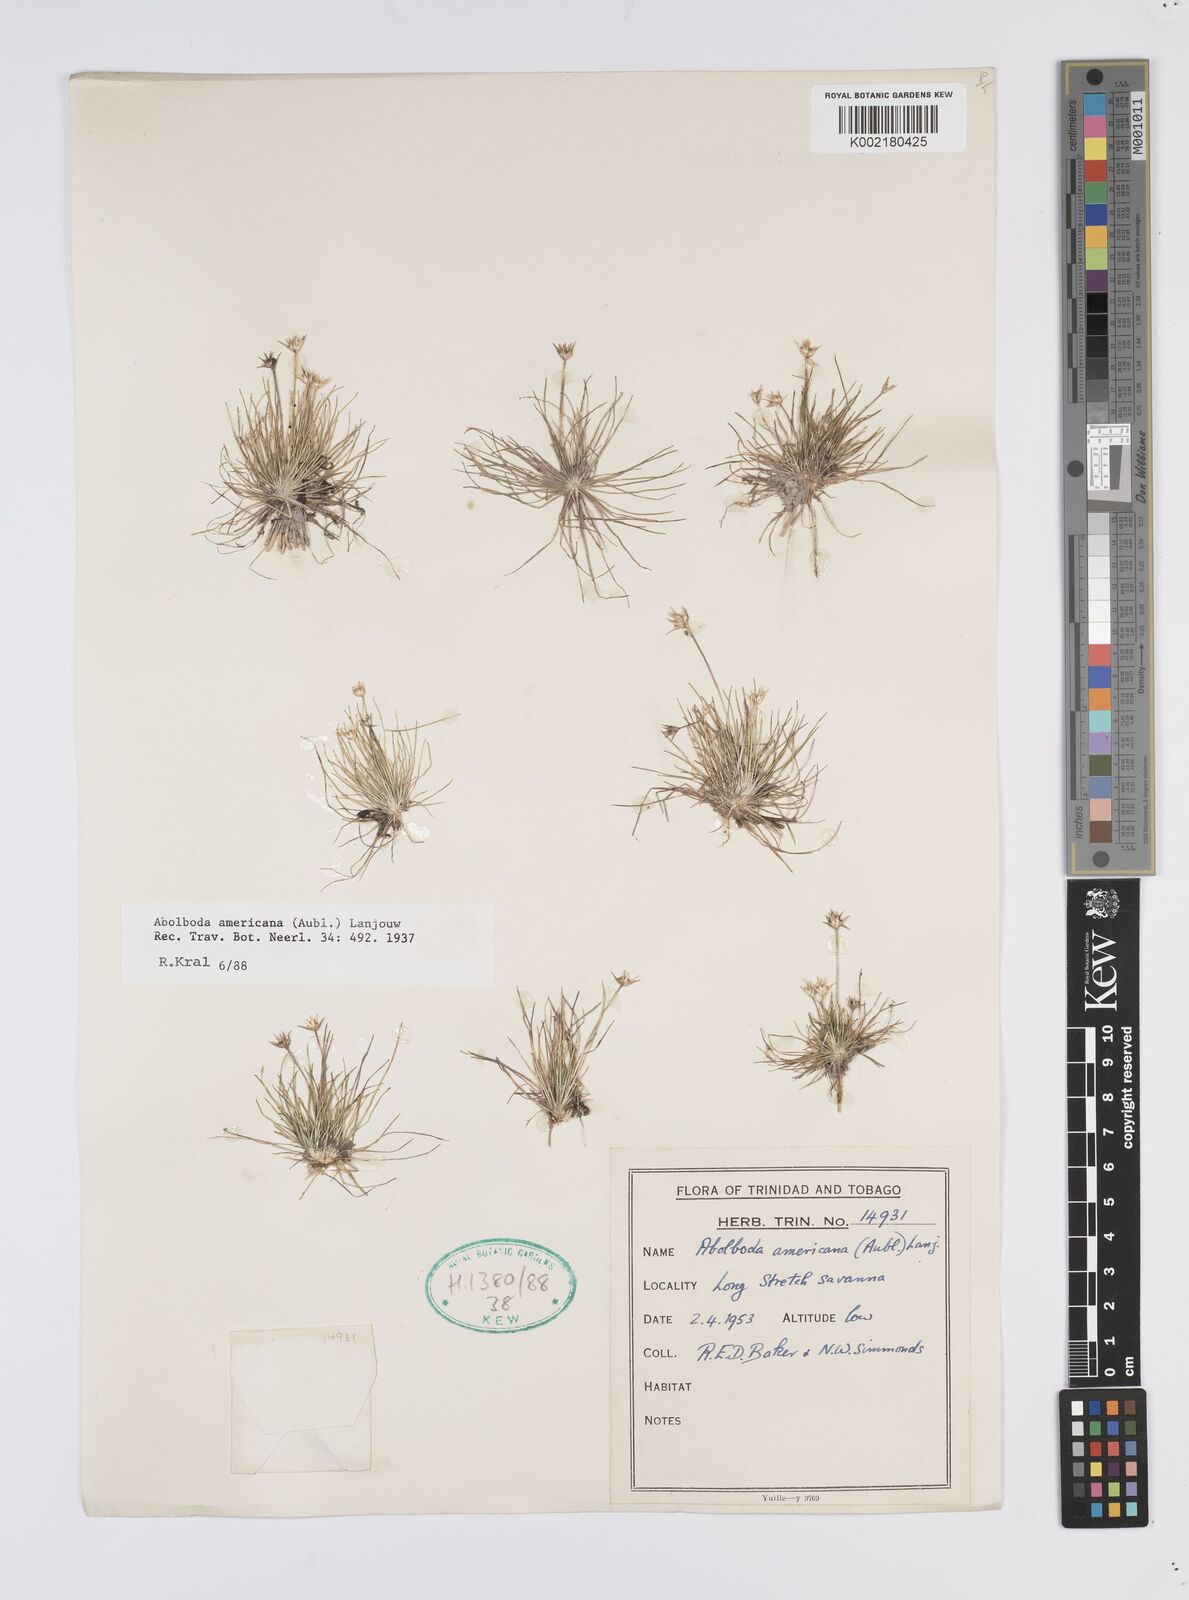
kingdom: Plantae
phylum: Tracheophyta
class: Liliopsida
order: Poales
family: Xyridaceae
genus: Abolboda
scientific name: Abolboda americana
